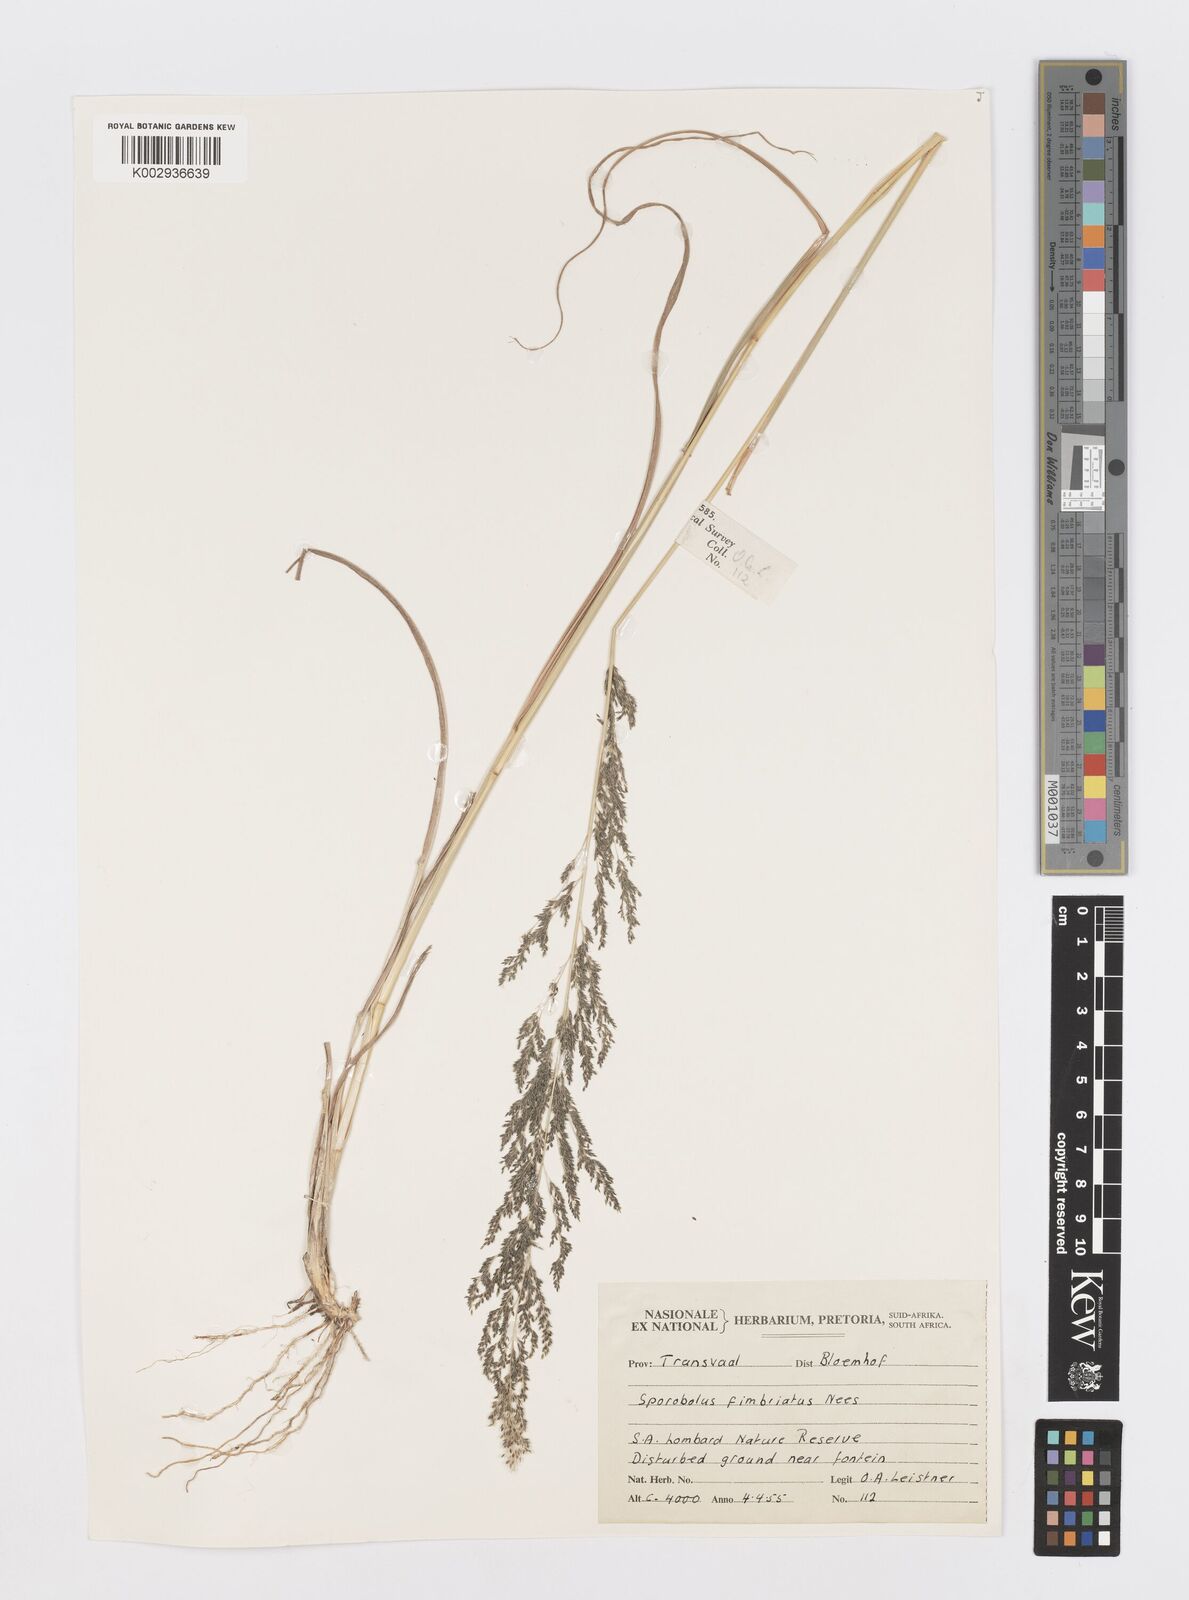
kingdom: Plantae
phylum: Tracheophyta
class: Liliopsida
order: Poales
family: Poaceae
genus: Sporobolus
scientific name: Sporobolus fimbriatus
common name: Fringed dropseed
